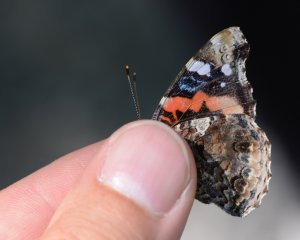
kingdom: Animalia
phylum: Arthropoda
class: Insecta
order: Lepidoptera
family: Nymphalidae
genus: Vanessa
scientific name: Vanessa atalanta
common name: Red Admiral
